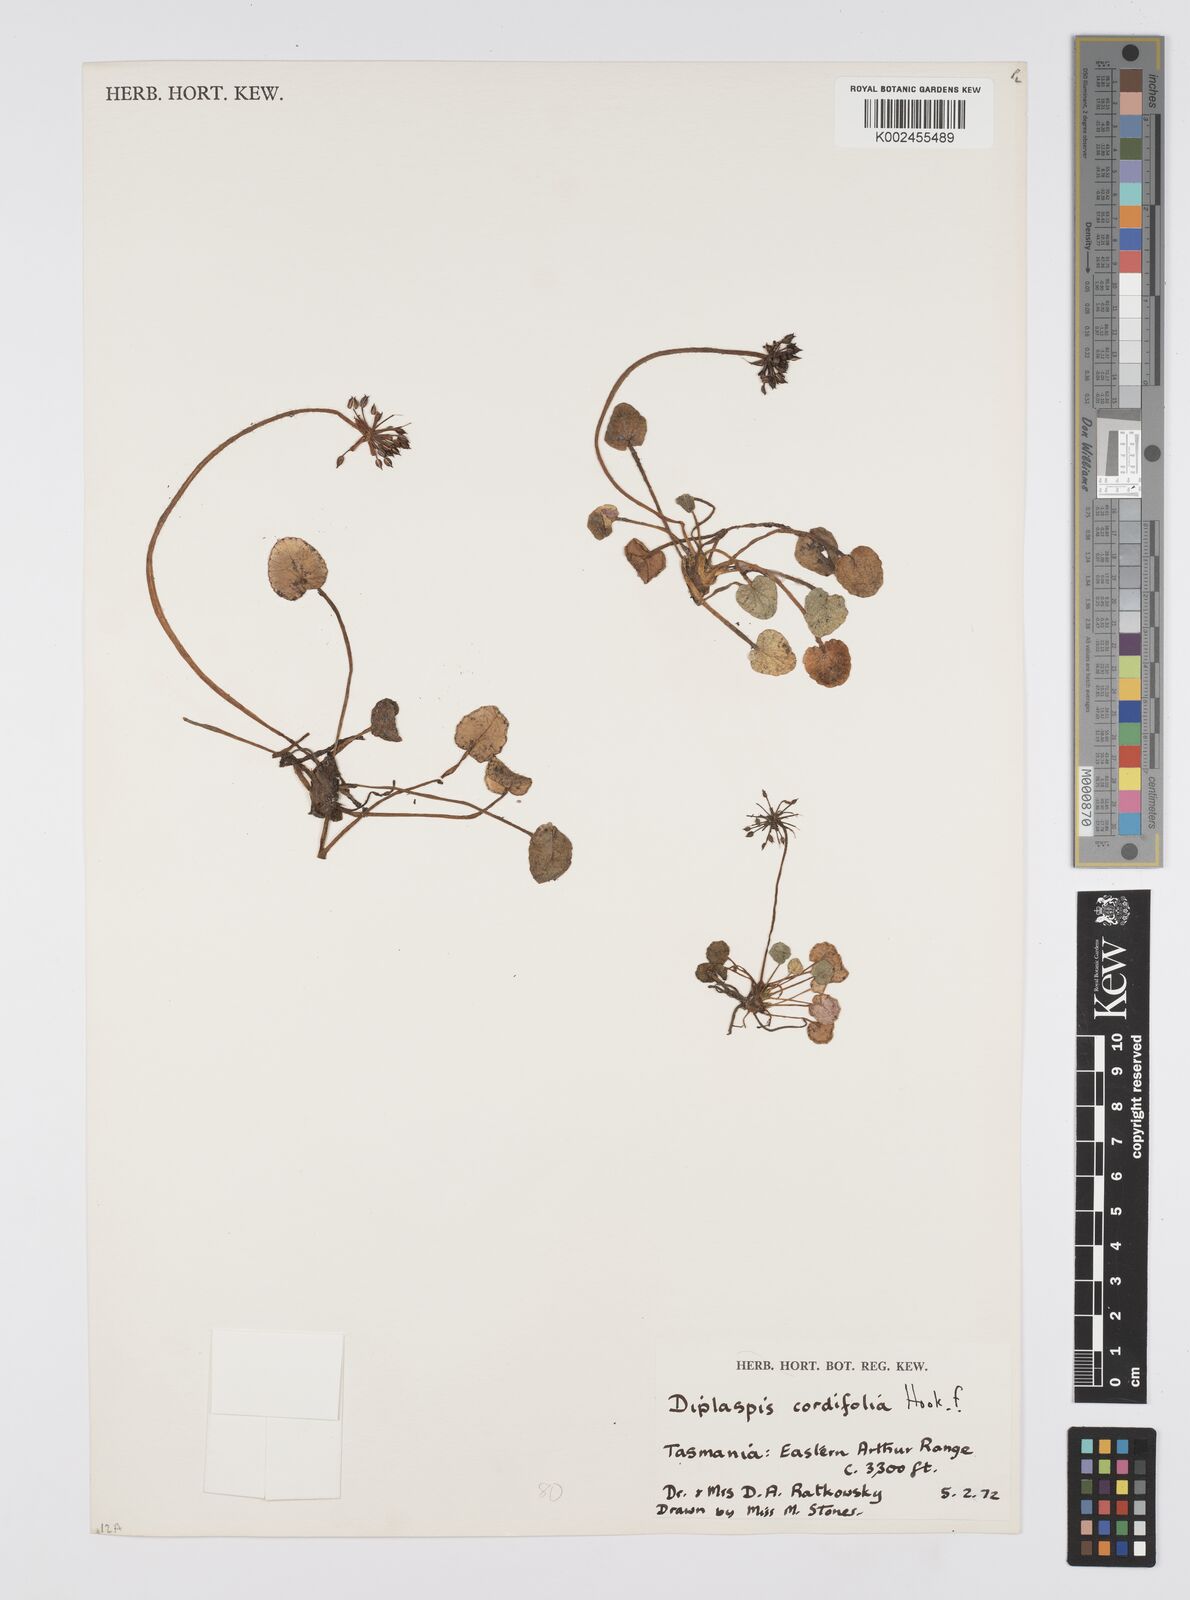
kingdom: Plantae
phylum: Tracheophyta
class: Magnoliopsida
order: Apiales
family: Apiaceae
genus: Diplaspis
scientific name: Diplaspis cordifolia
